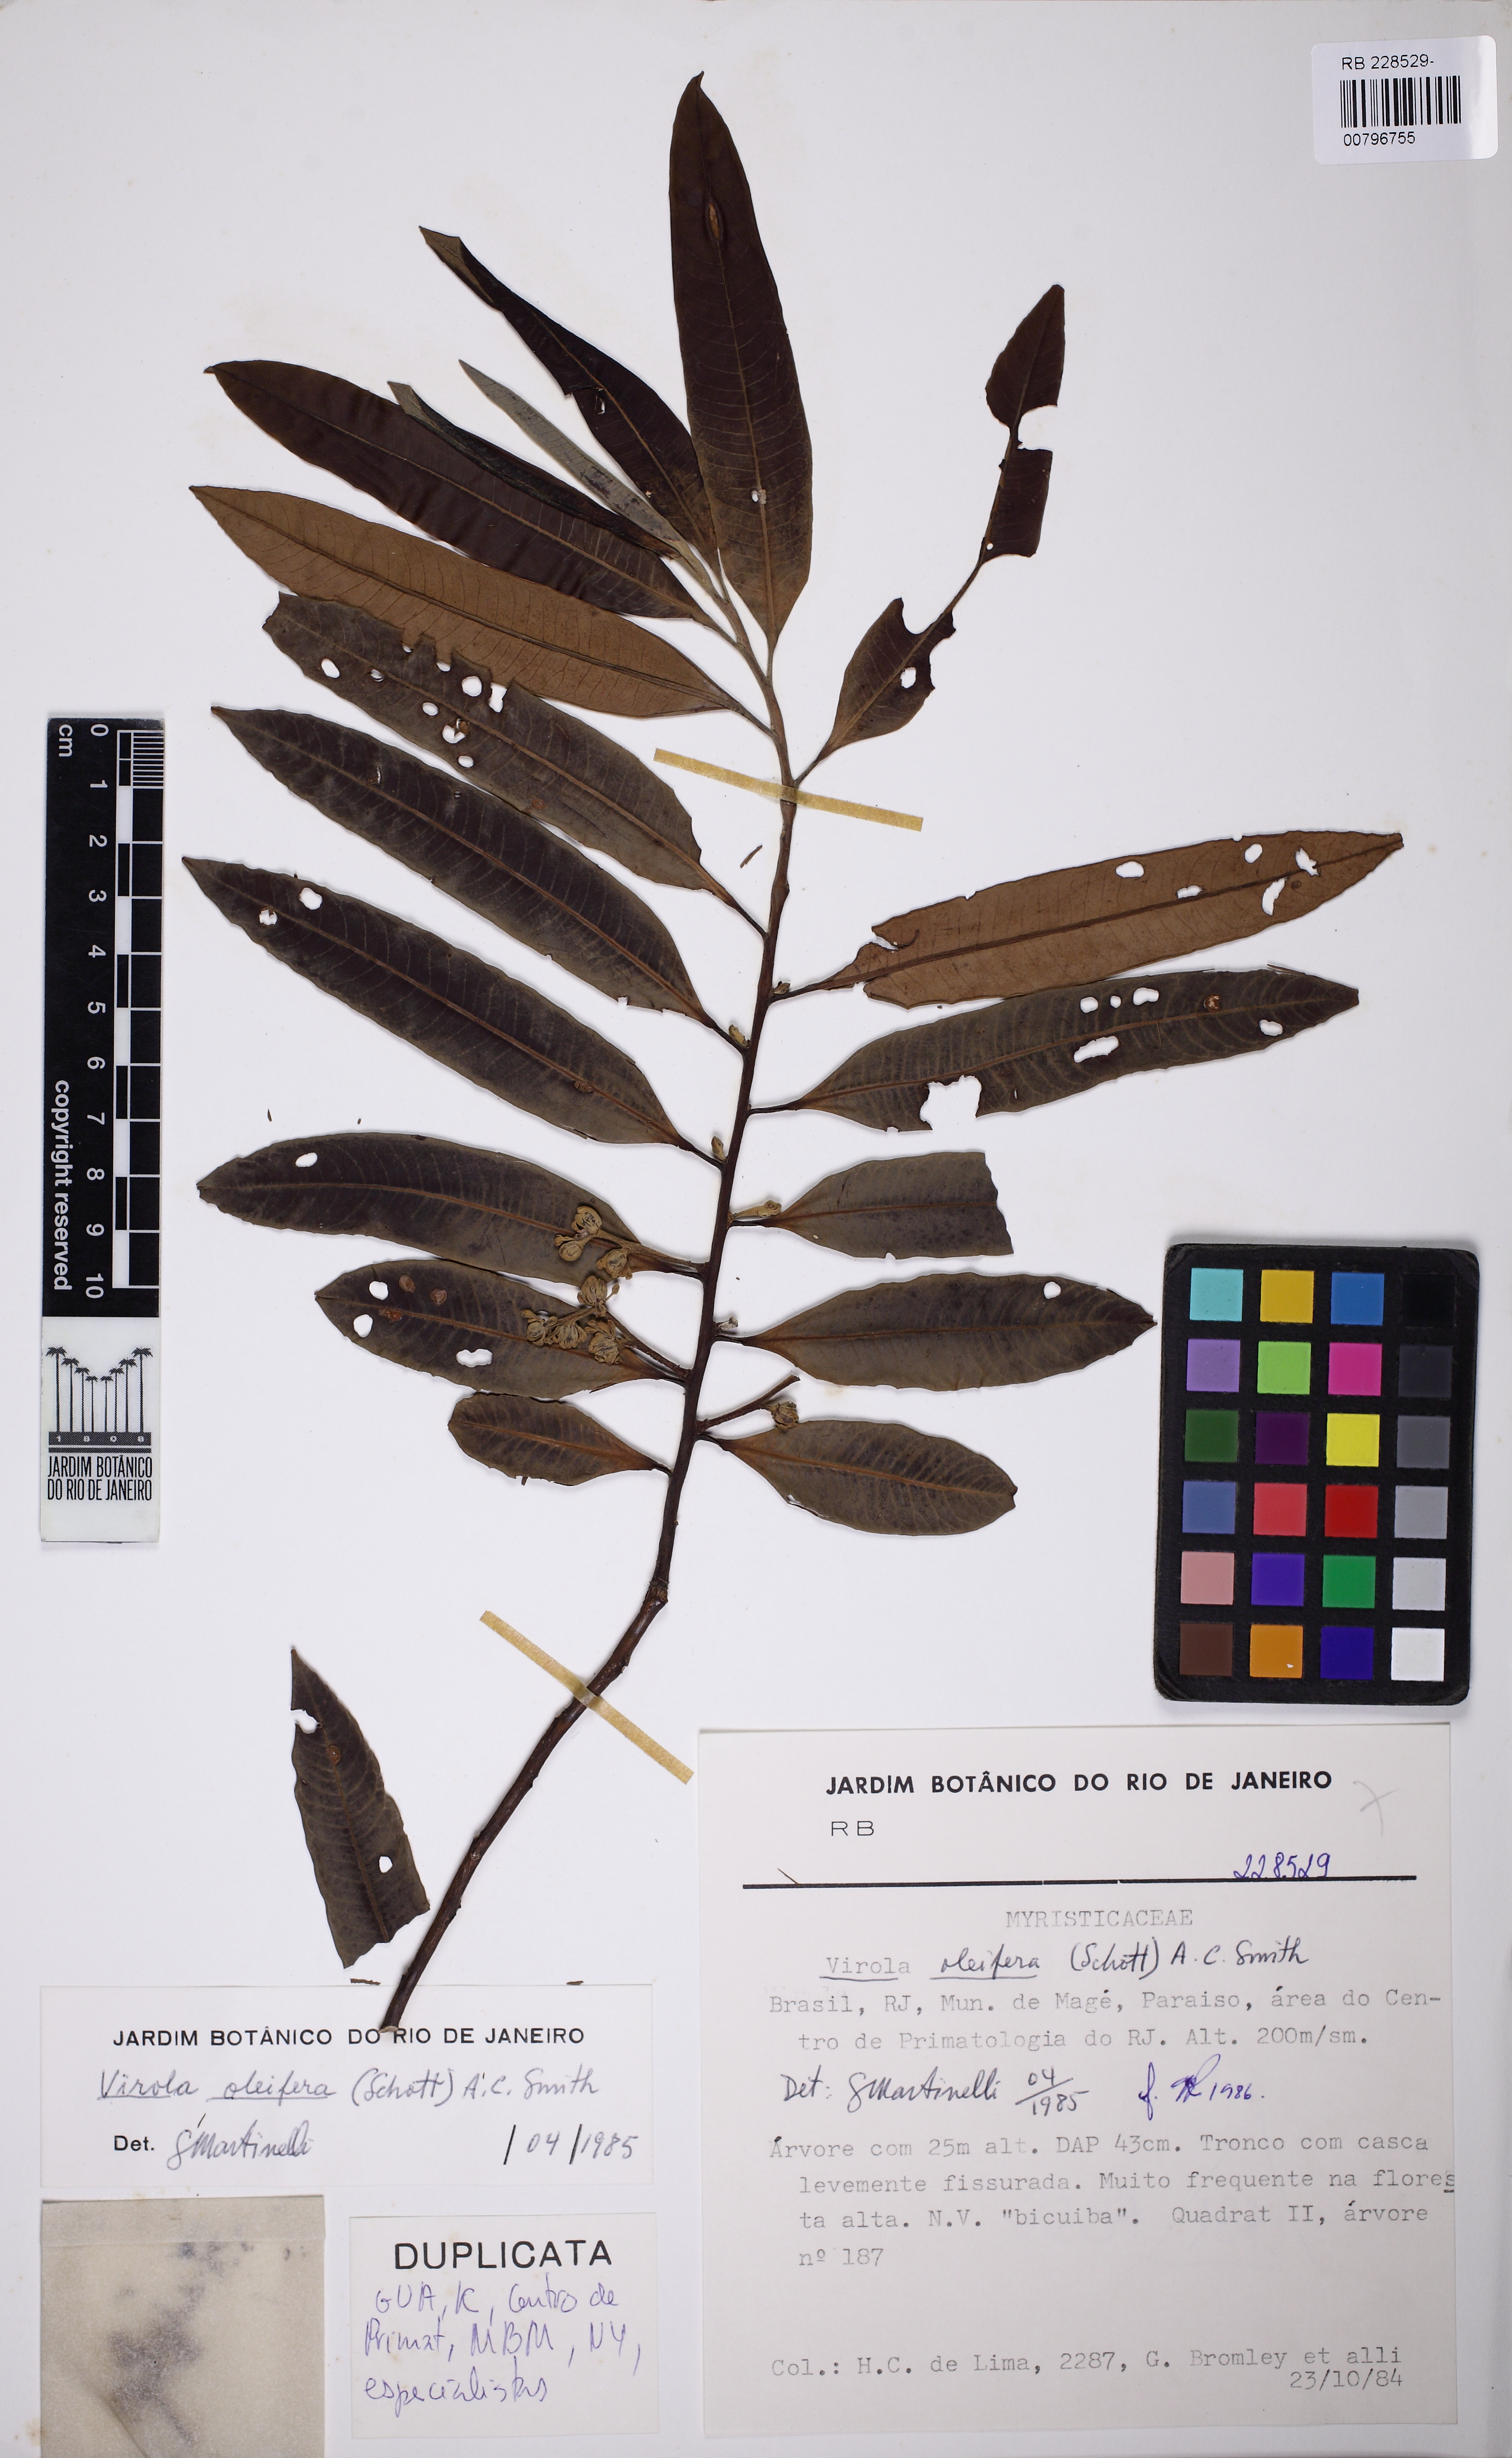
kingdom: Plantae
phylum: Tracheophyta
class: Magnoliopsida
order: Magnoliales
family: Myristicaceae
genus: Bicuiba
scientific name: Bicuiba oleifera
